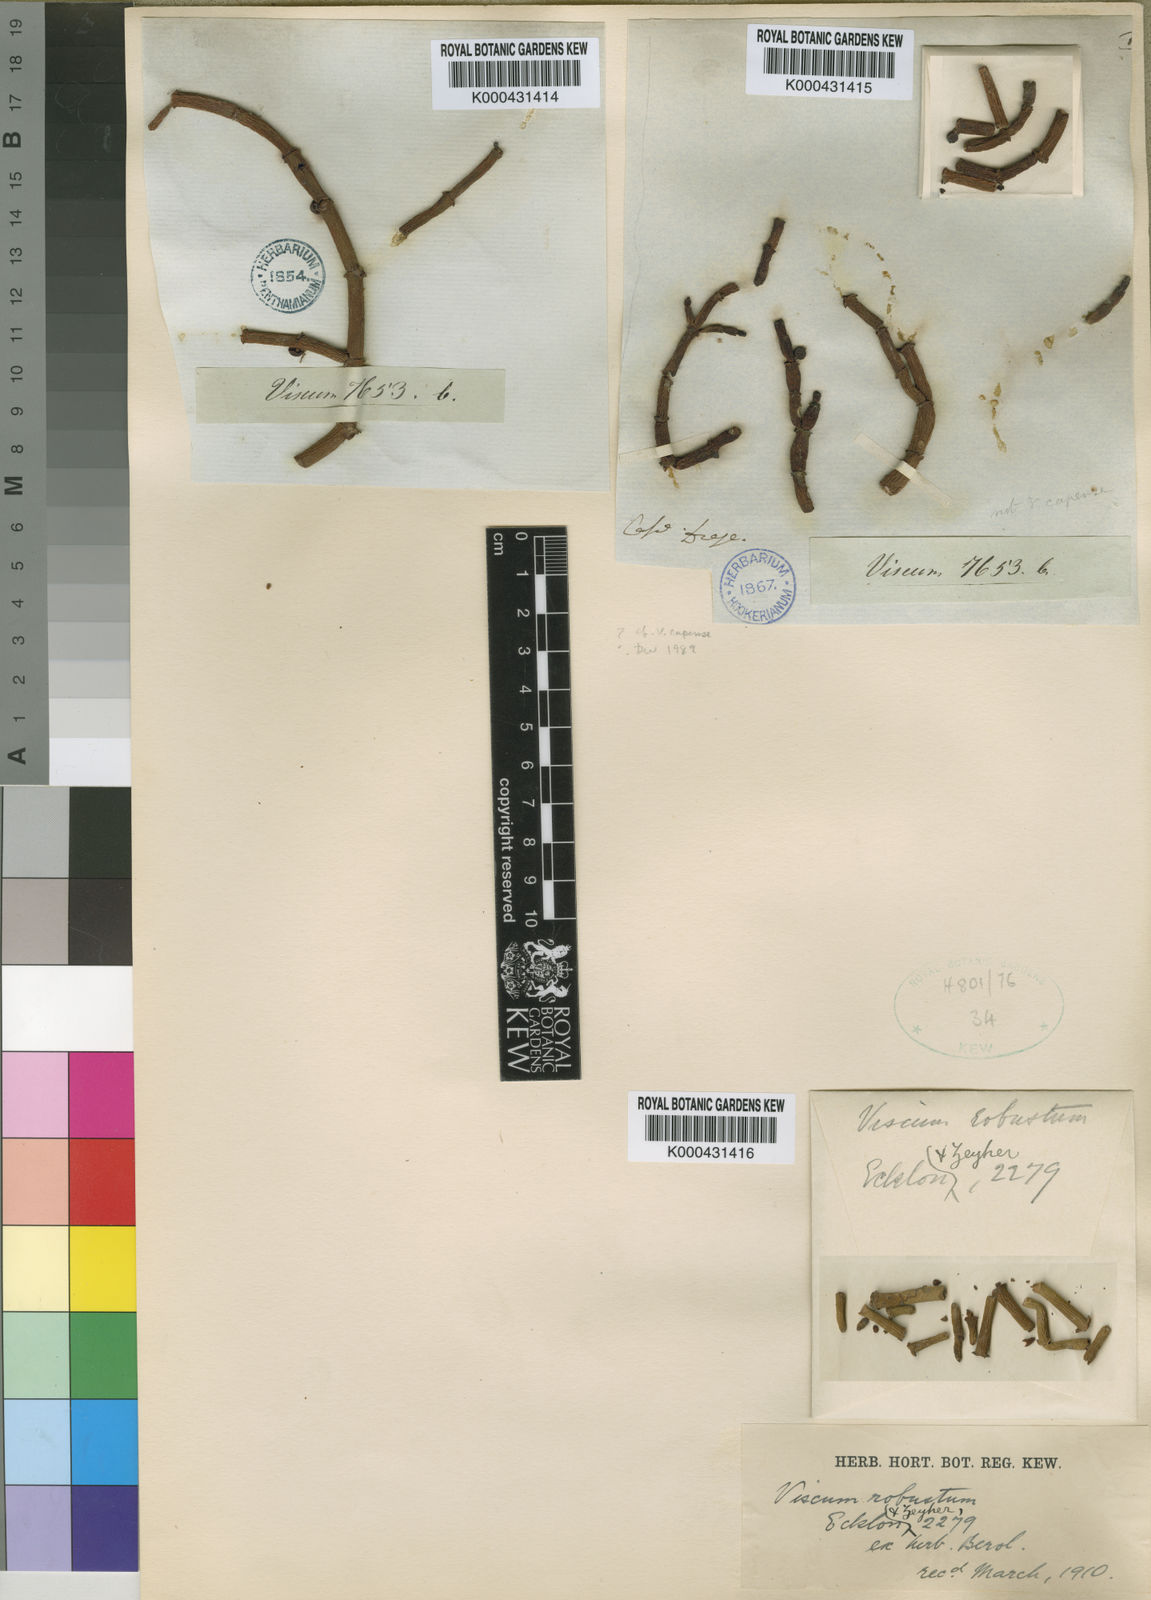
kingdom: Plantae
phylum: Tracheophyta
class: Magnoliopsida
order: Santalales
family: Viscaceae
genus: Viscum
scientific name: Viscum capense
